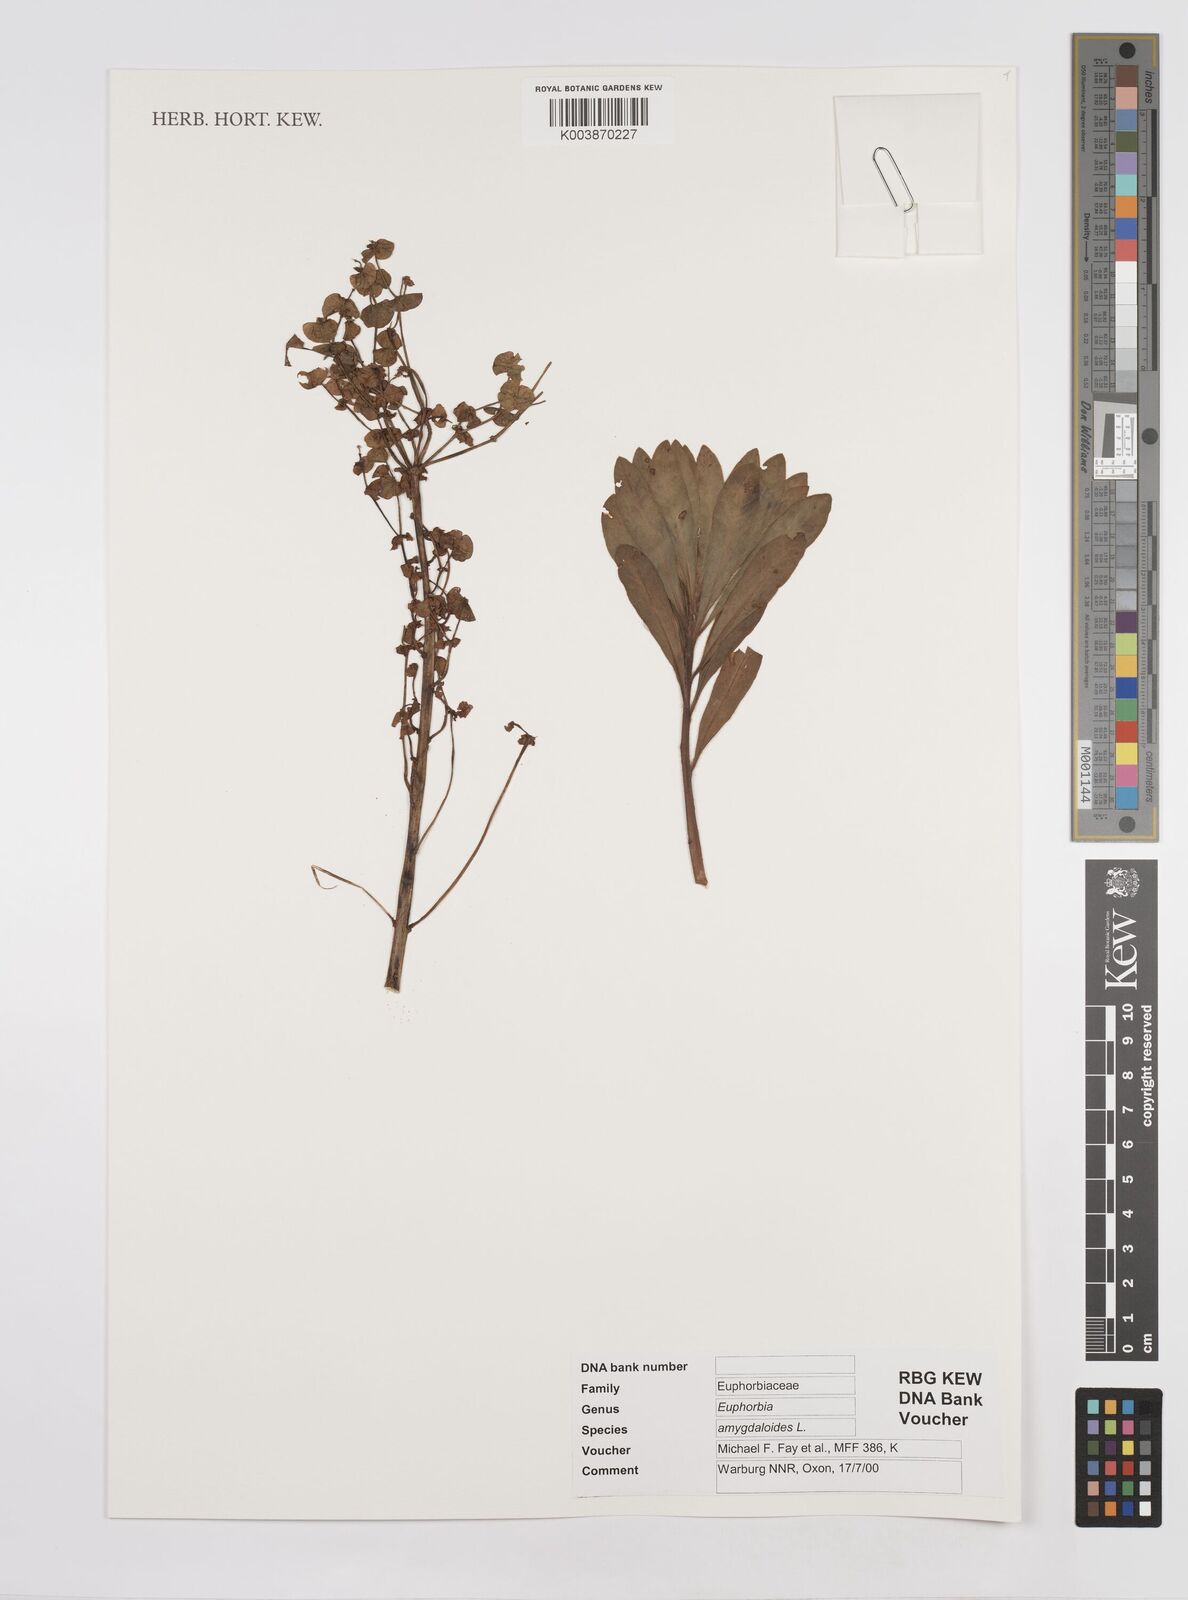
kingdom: Plantae
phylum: Tracheophyta
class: Magnoliopsida
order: Malpighiales
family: Euphorbiaceae
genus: Euphorbia
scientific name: Euphorbia amygdaloides
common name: Wood spurge
